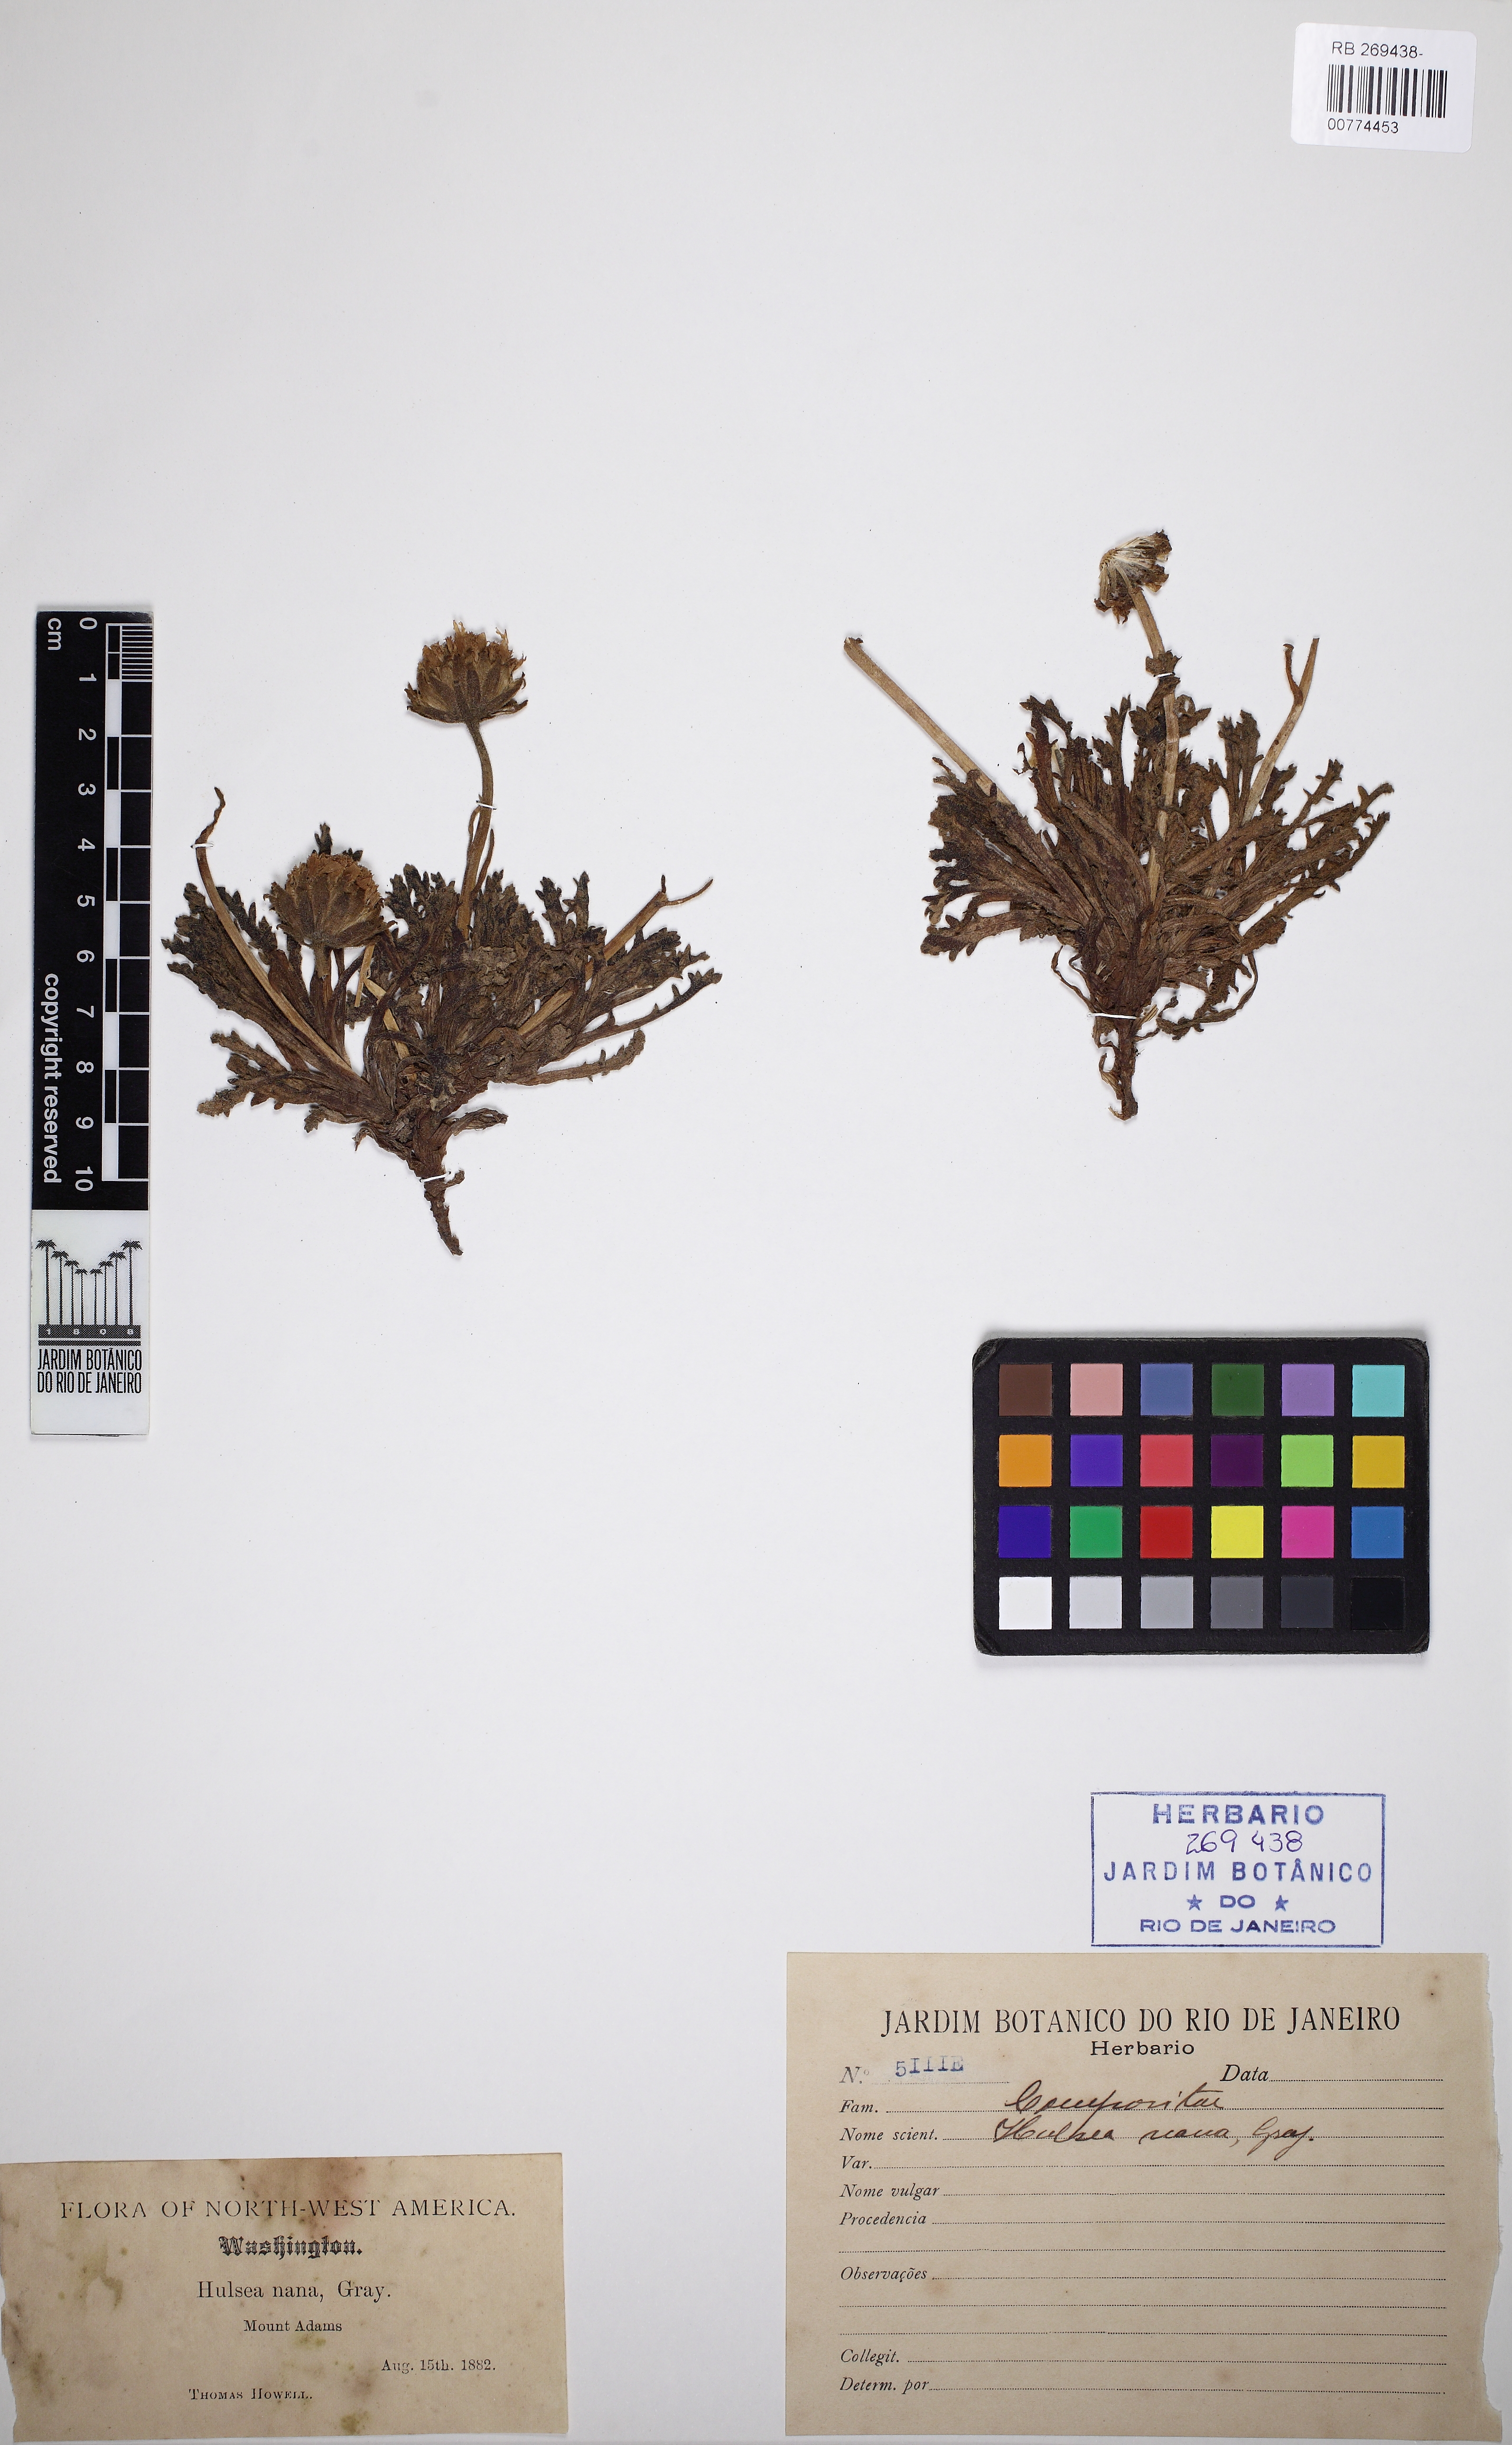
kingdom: Plantae
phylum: Tracheophyta
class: Magnoliopsida
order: Asterales
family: Asteraceae
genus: Hulsea
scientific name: Hulsea nana
